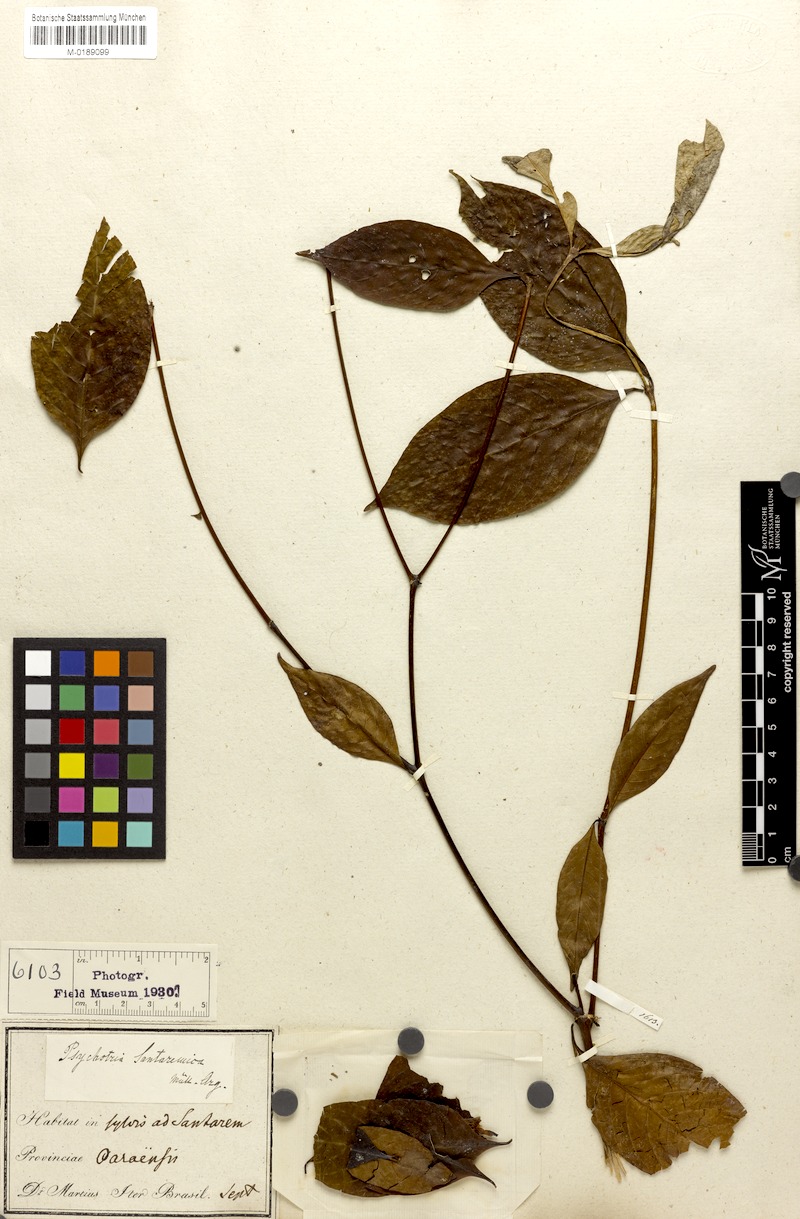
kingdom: Plantae
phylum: Tracheophyta
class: Magnoliopsida
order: Gentianales
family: Rubiaceae
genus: Psychotria
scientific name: Psychotria santaremica
